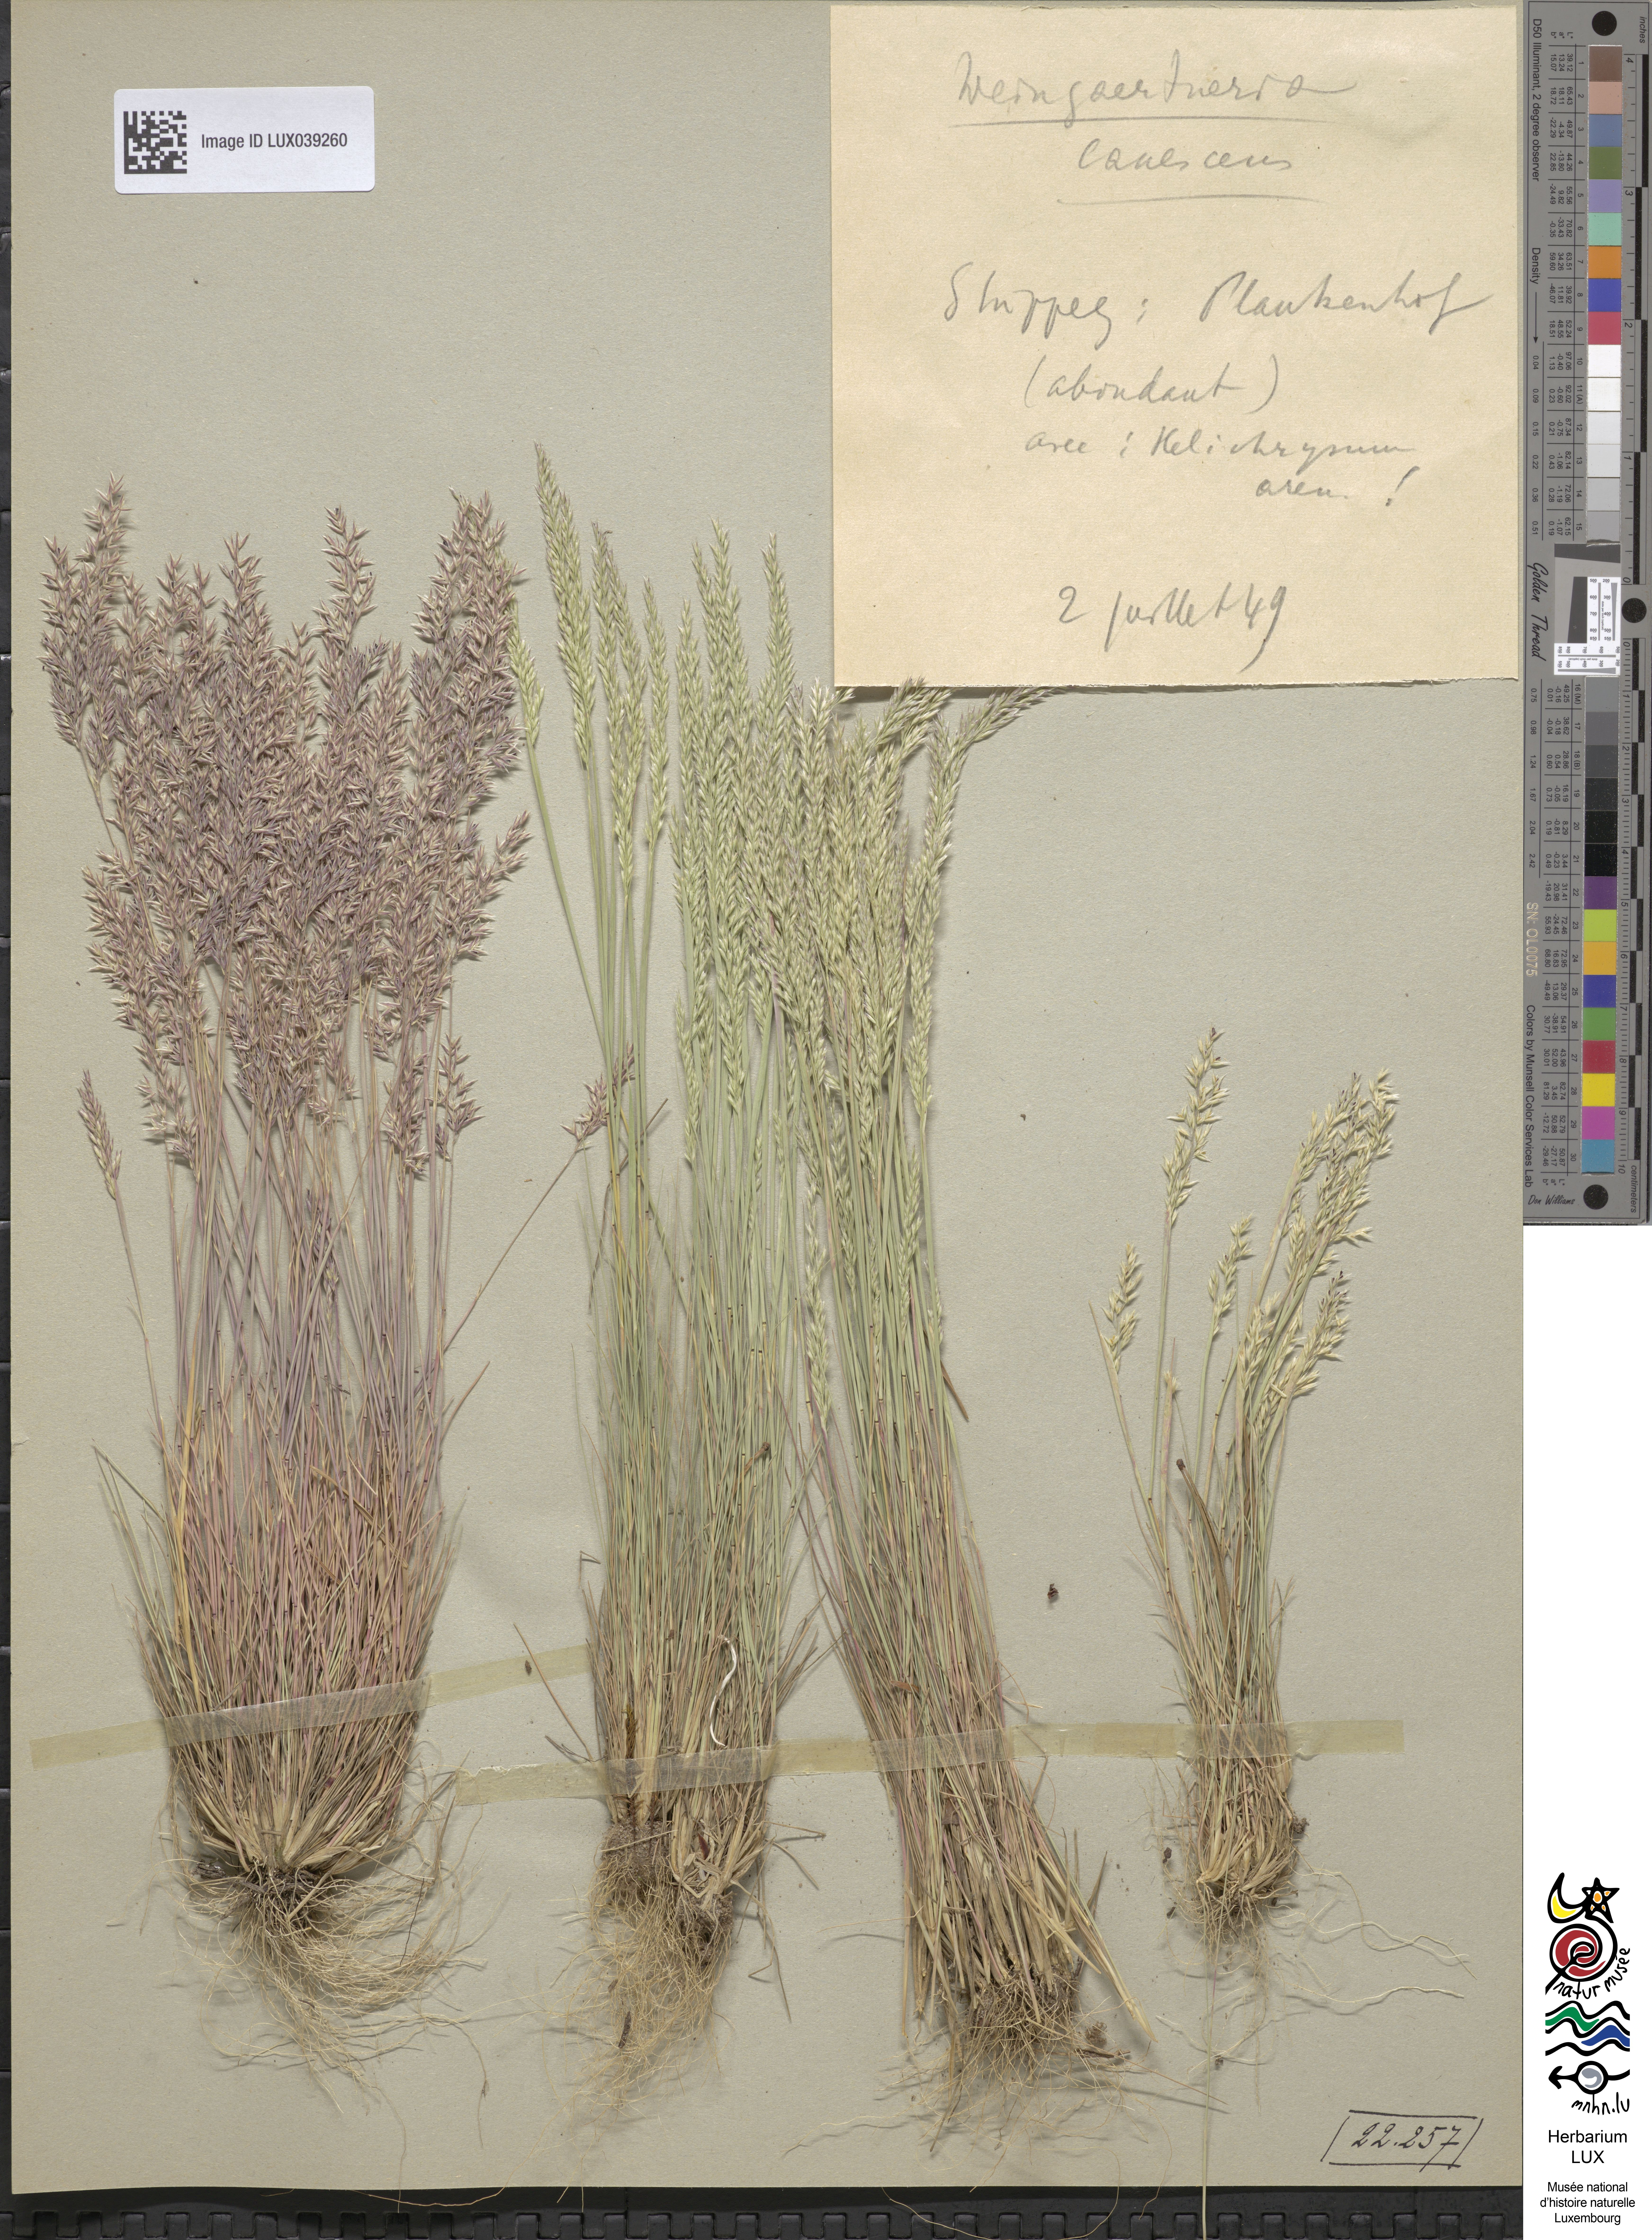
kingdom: Plantae
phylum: Tracheophyta
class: Liliopsida
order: Poales
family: Poaceae
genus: Corynephorus
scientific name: Corynephorus canescens
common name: Grey hair-grass
